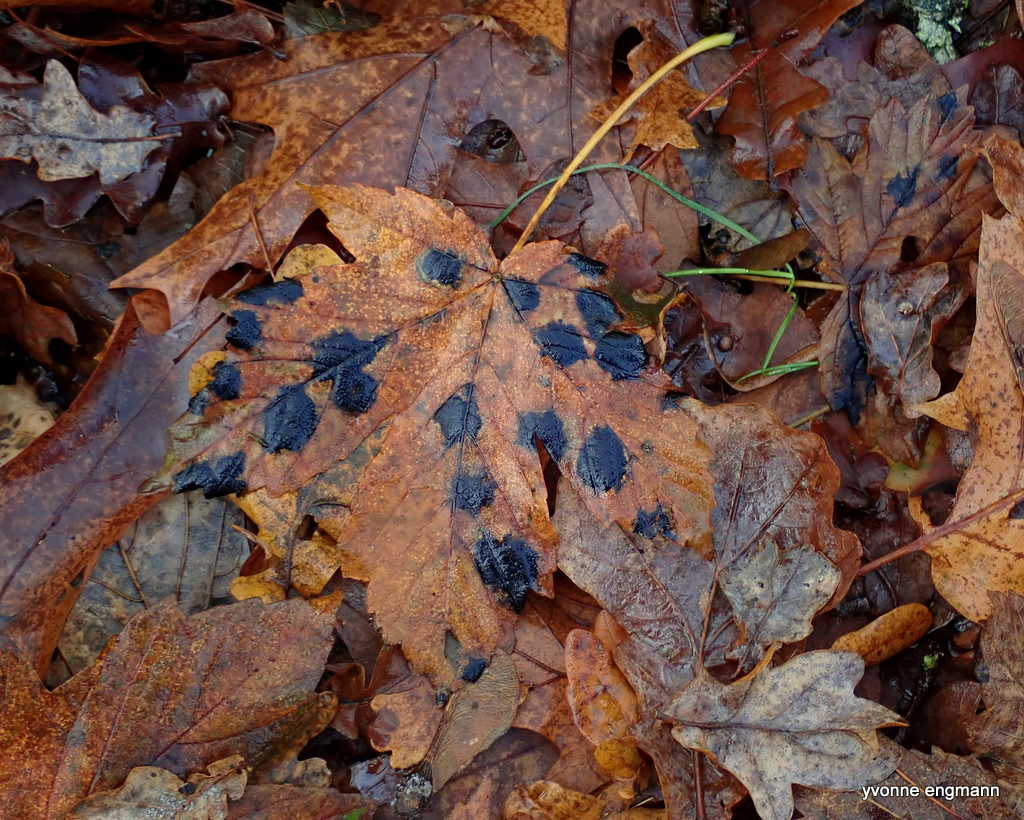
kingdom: Fungi
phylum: Ascomycota
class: Leotiomycetes
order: Rhytismatales
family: Rhytismataceae
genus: Rhytisma
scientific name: Rhytisma acerinum
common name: ahorn-rynkeplet
